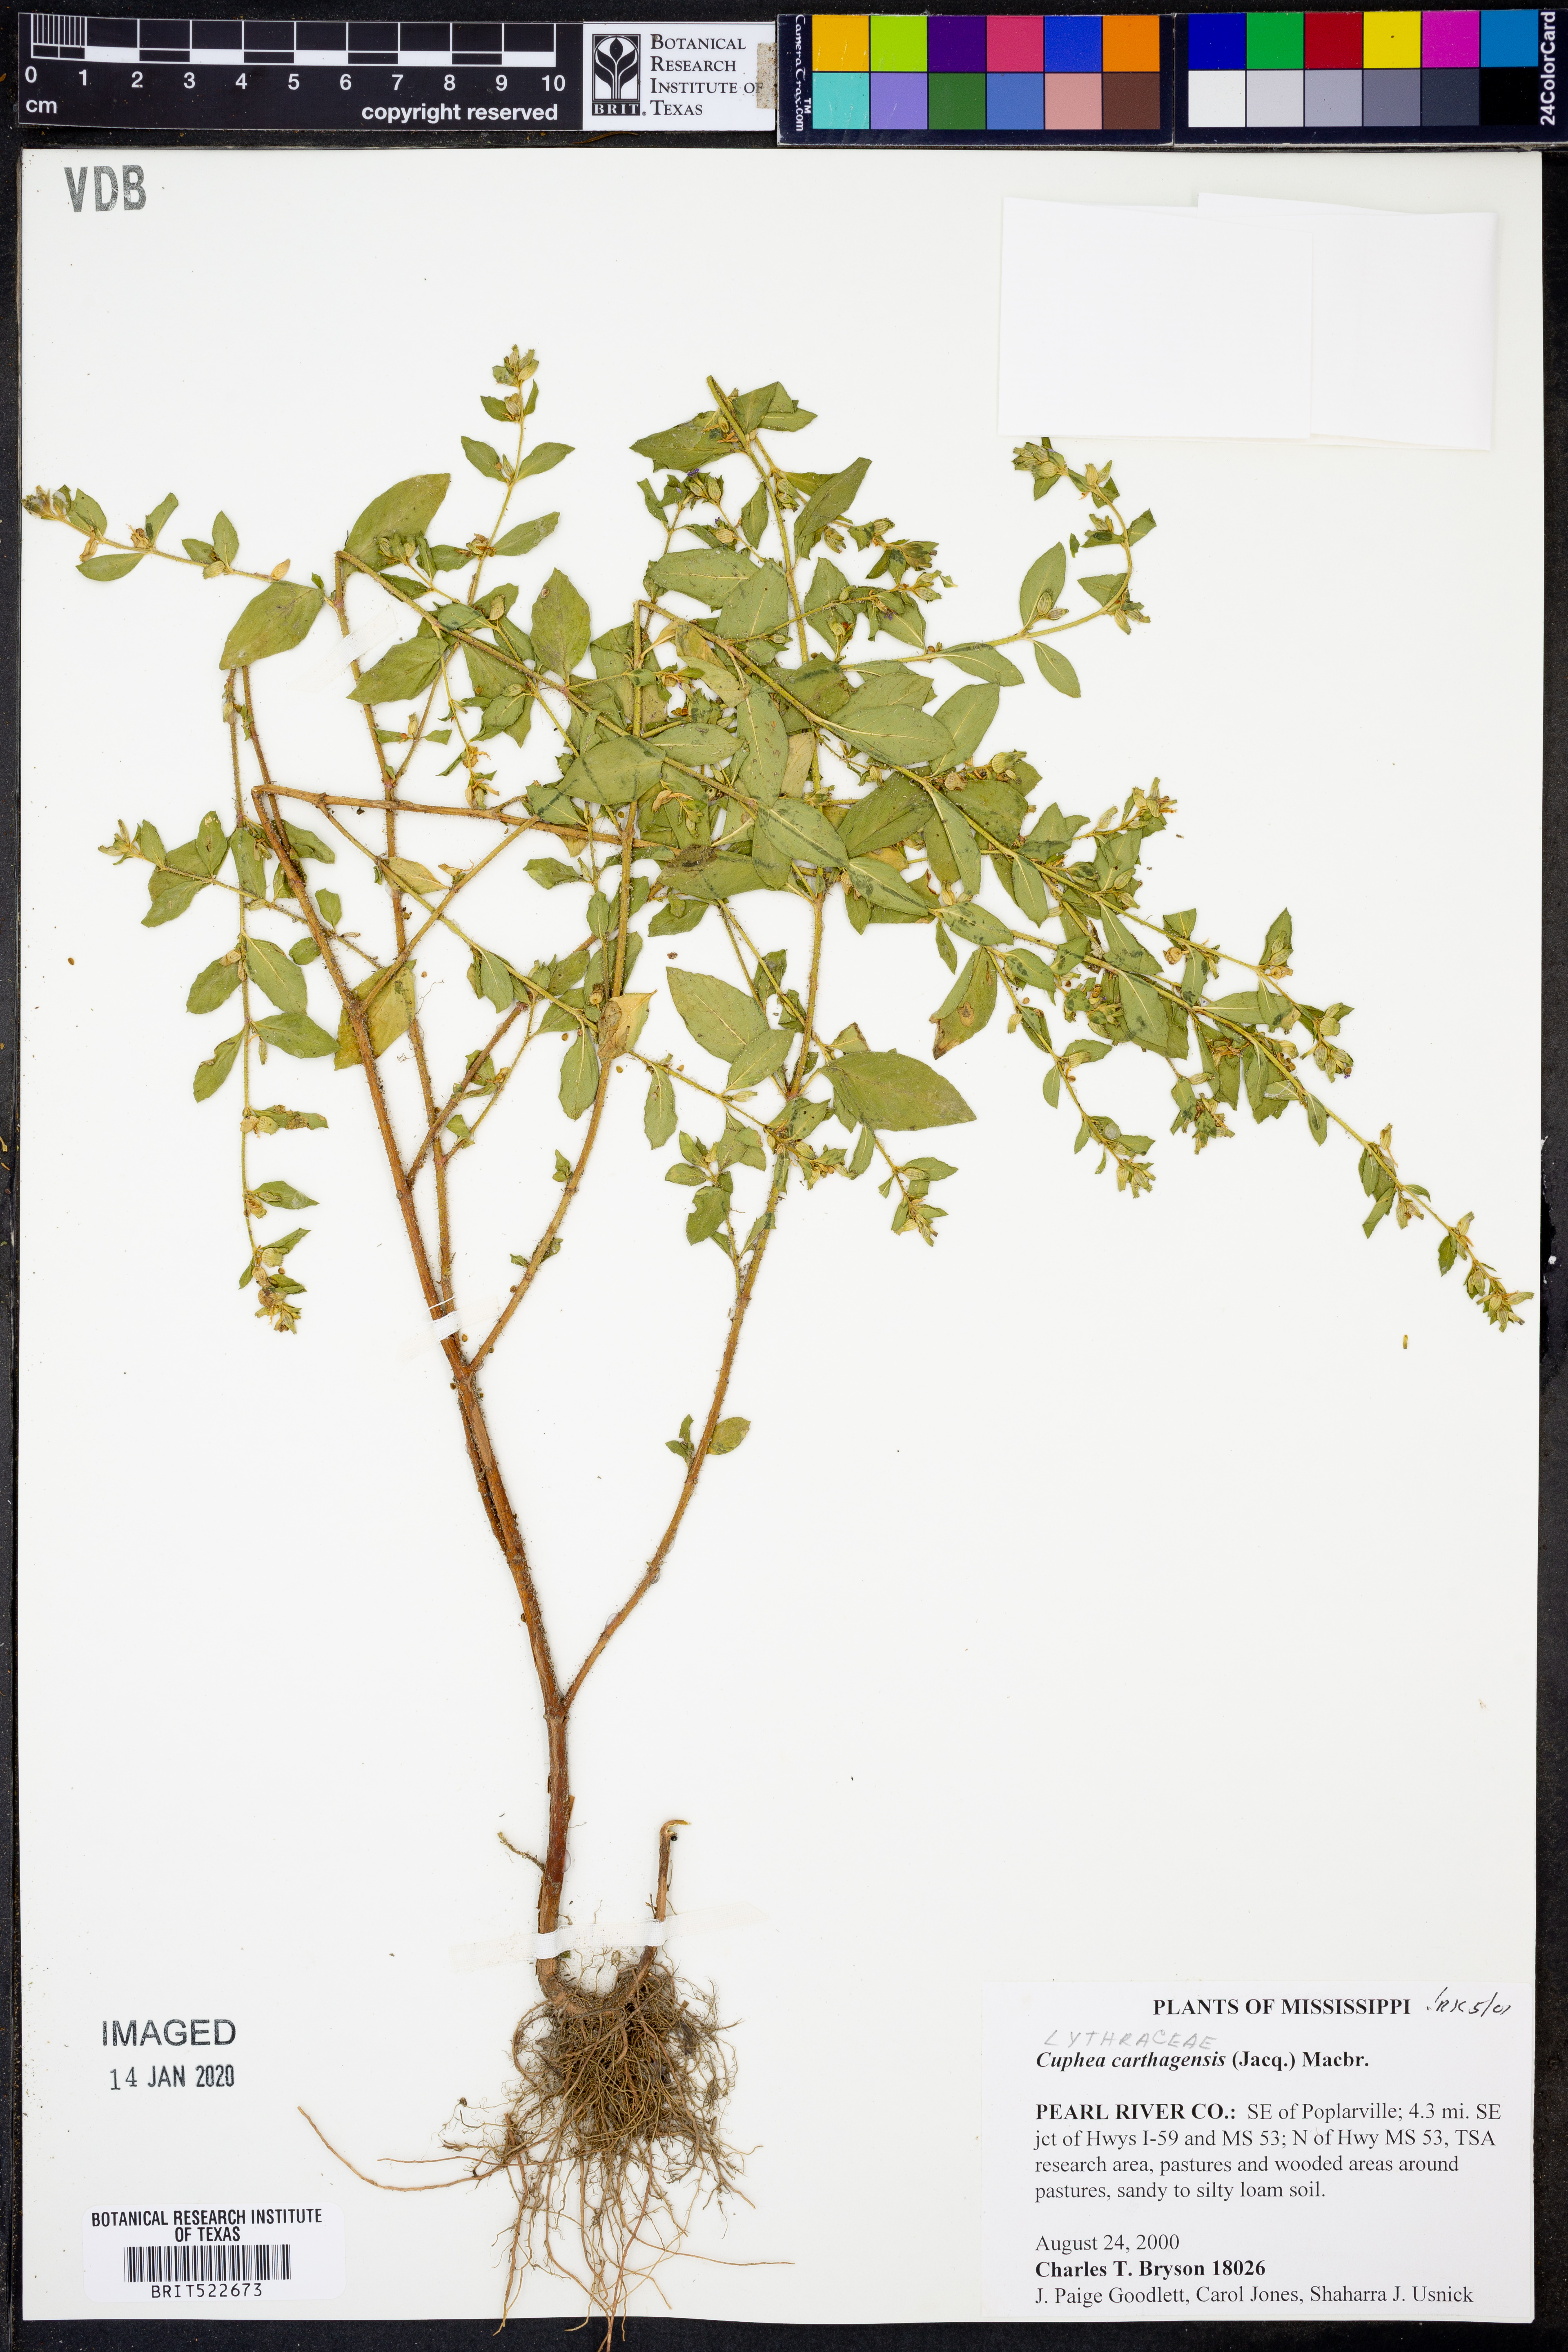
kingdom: Plantae
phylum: Tracheophyta
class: Magnoliopsida
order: Myrtales
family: Lythraceae
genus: Cuphea
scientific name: Cuphea carthagenensis
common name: Colombian waxweed
